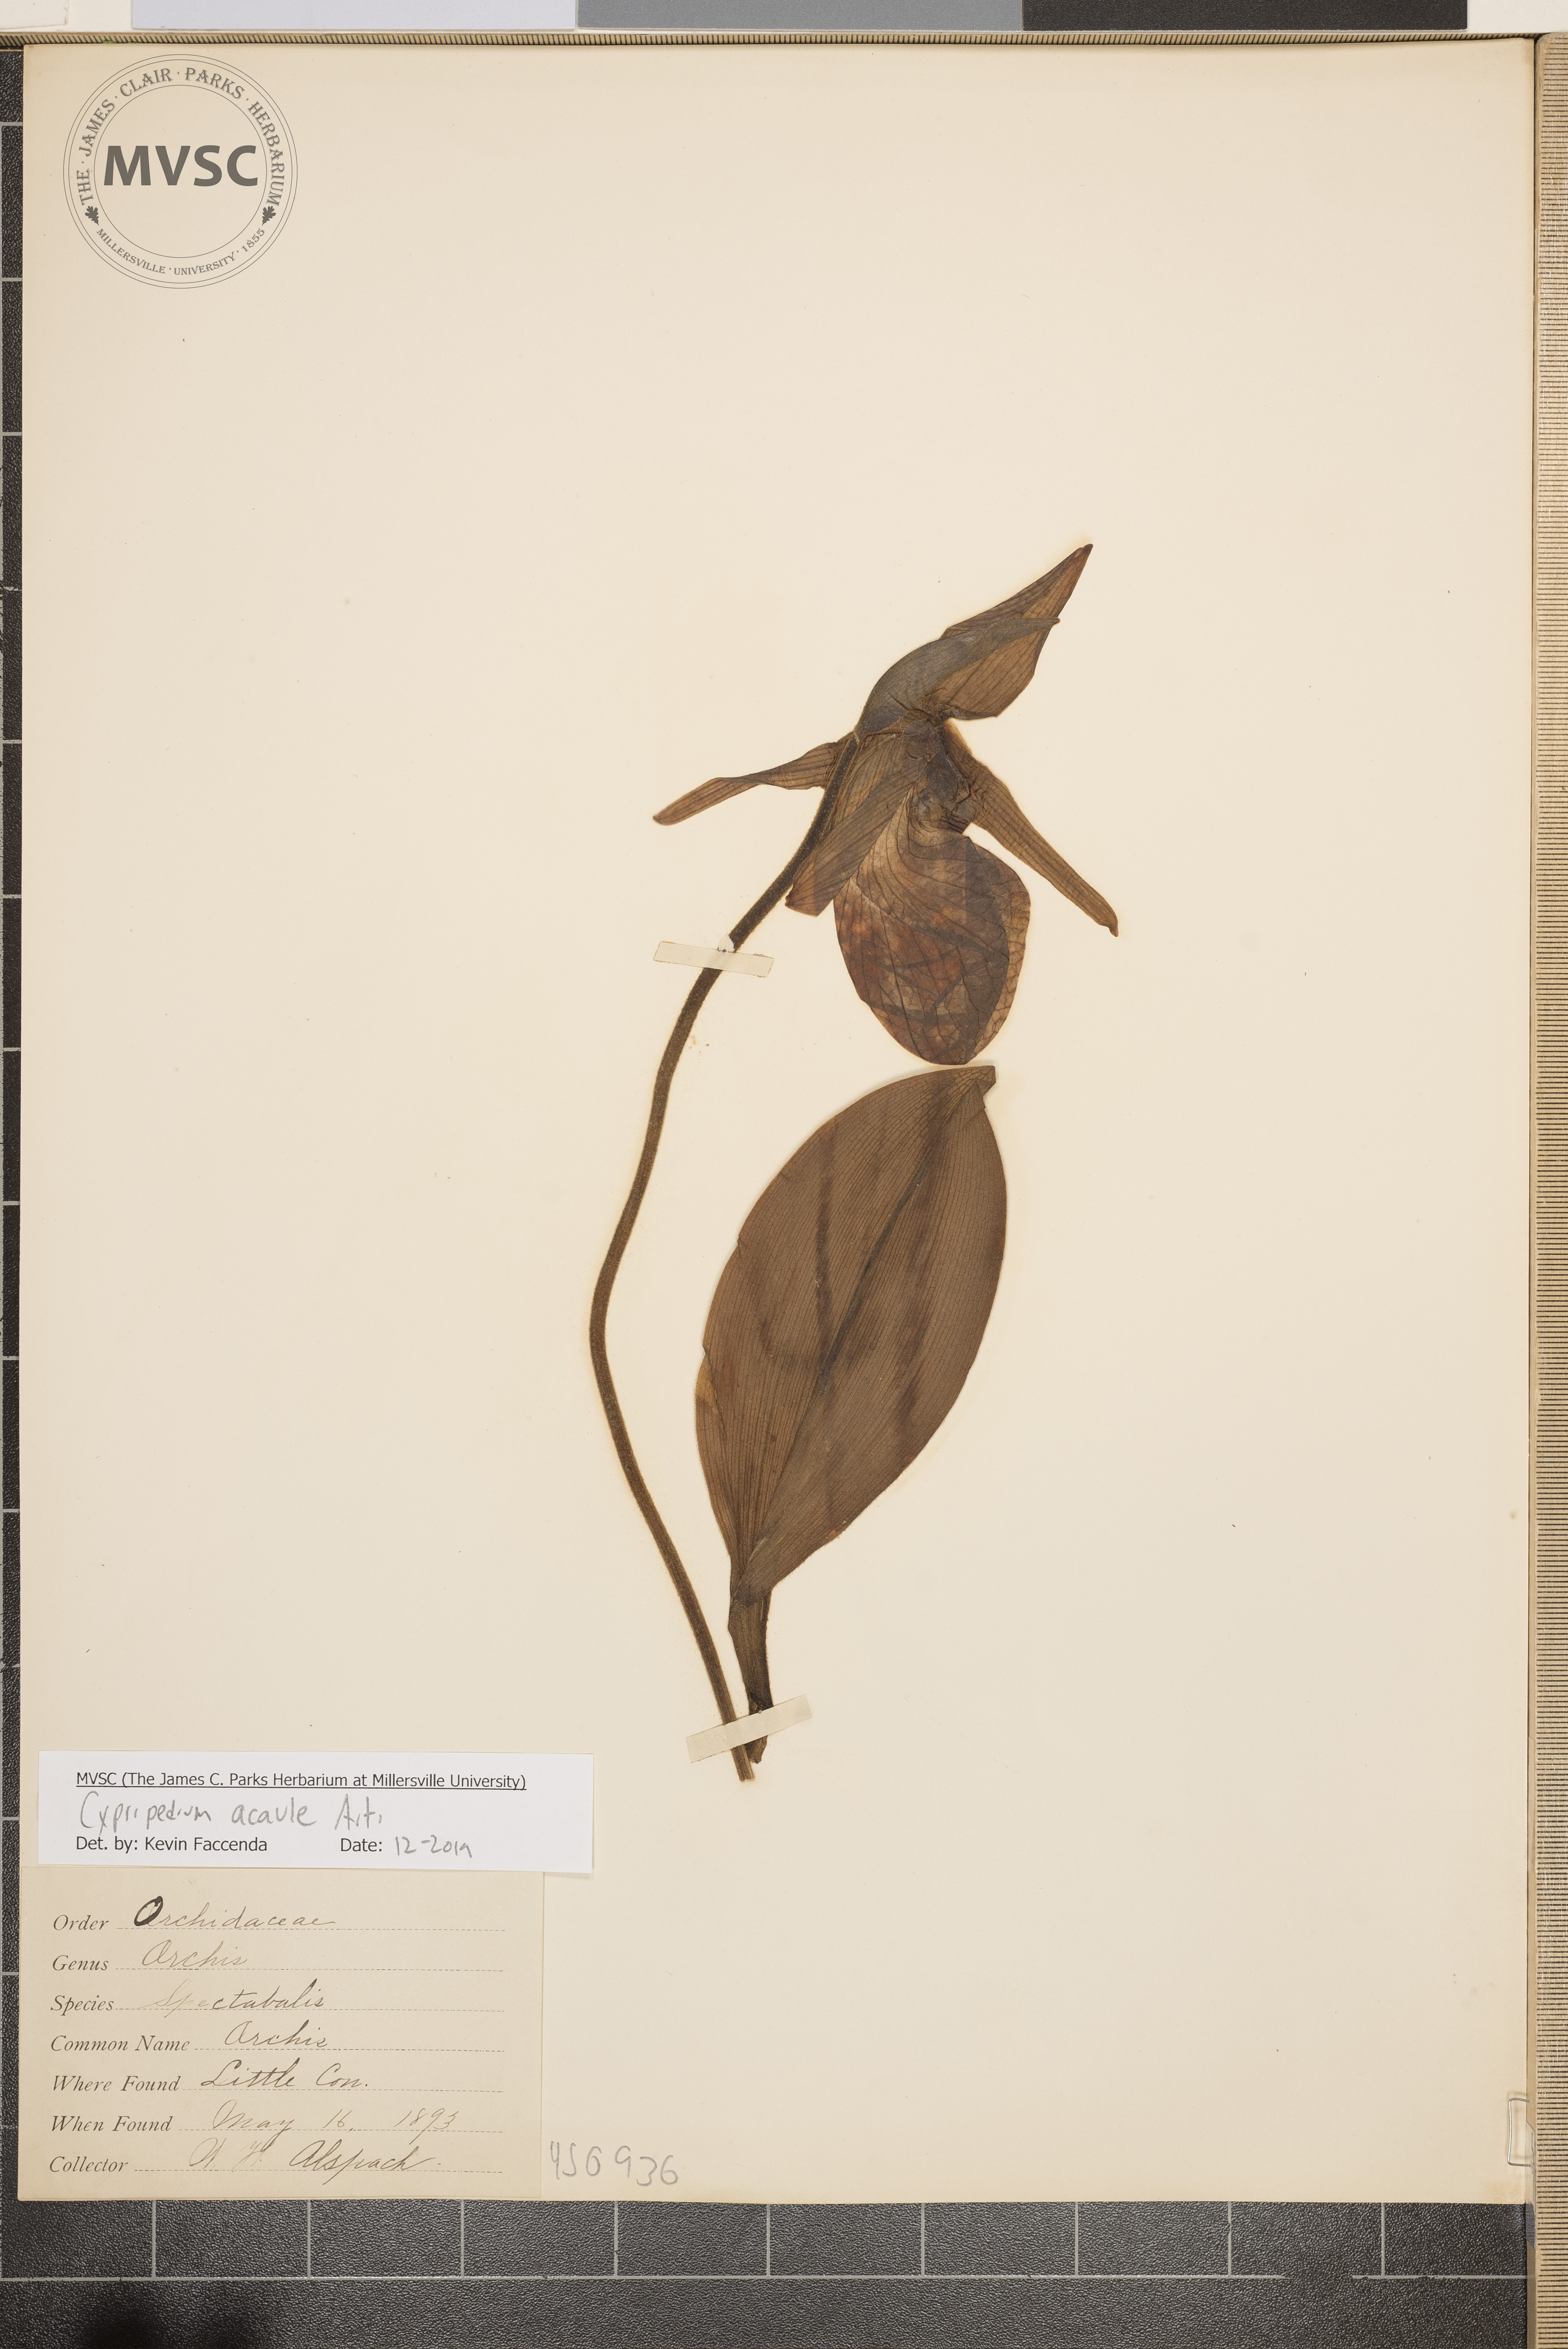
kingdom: Plantae
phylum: Tracheophyta
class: Liliopsida
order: Asparagales
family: Orchidaceae
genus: Cypripedium
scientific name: Cypripedium acaule
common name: Orchis
